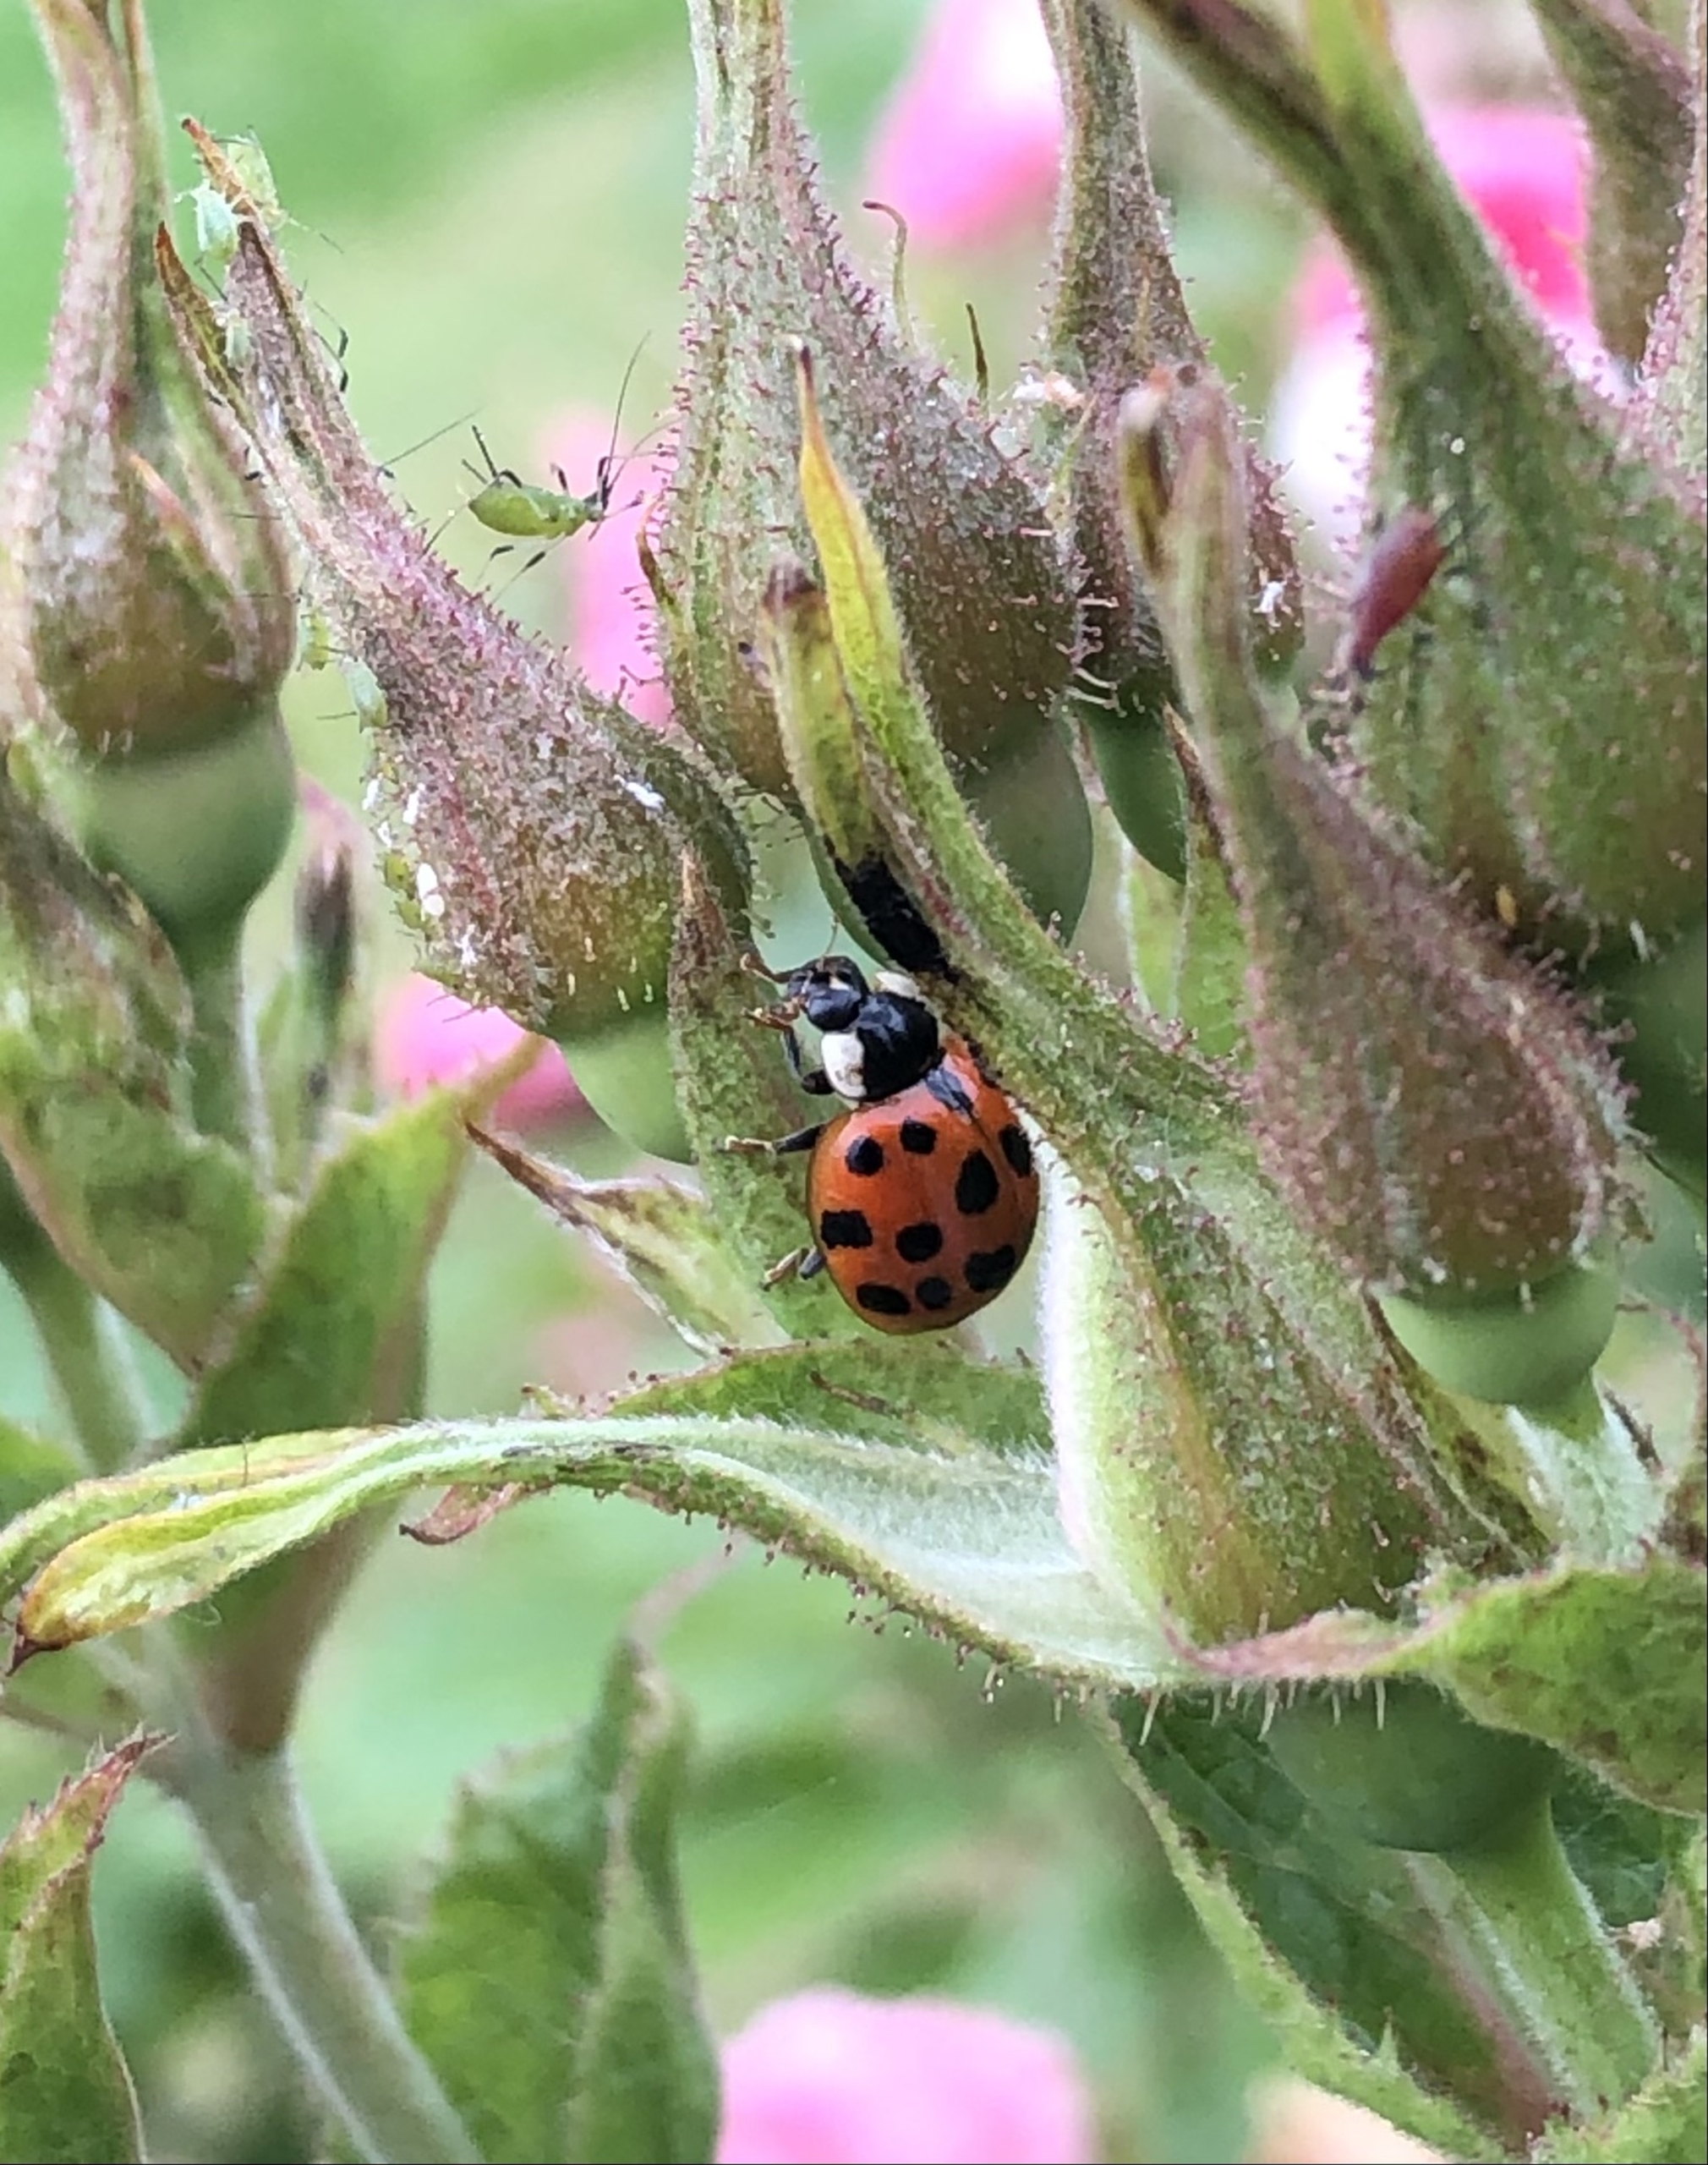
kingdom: Animalia
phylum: Arthropoda
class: Insecta
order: Coleoptera
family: Coccinellidae
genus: Harmonia
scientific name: Harmonia axyridis
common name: Harlekinmariehøne
